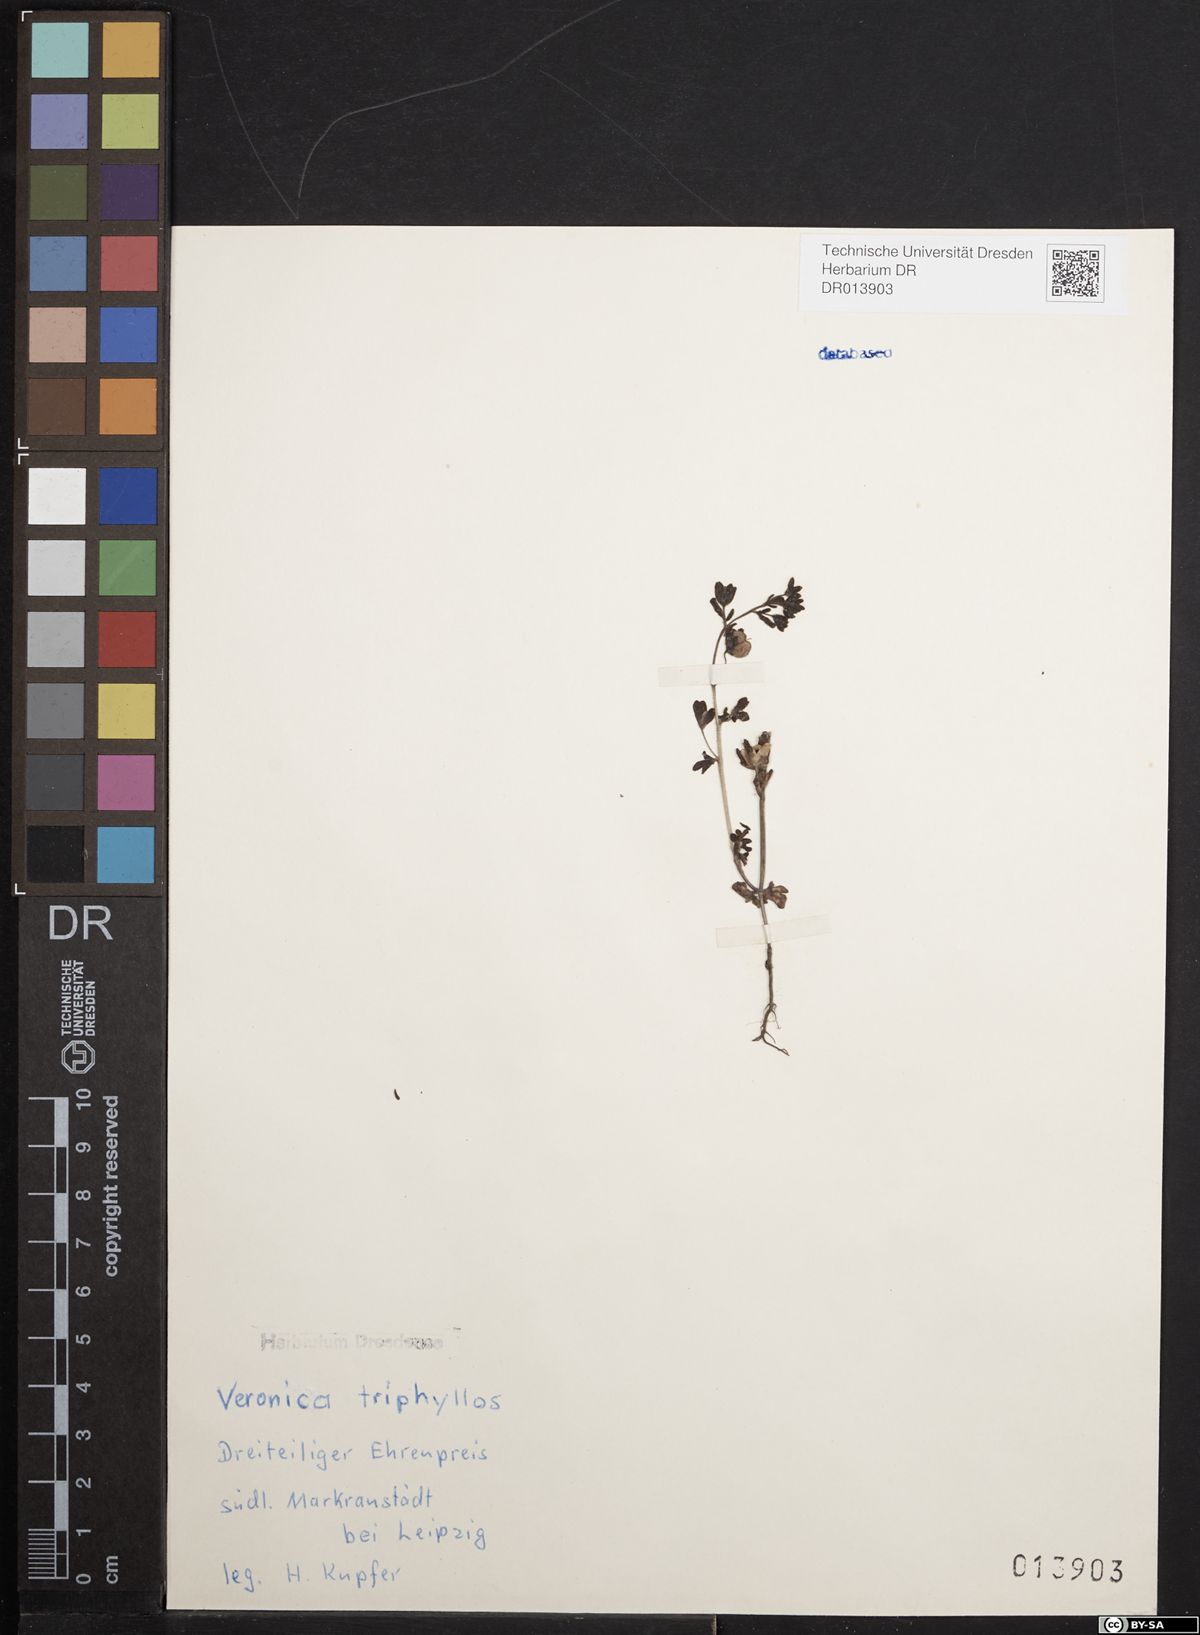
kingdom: Plantae
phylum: Tracheophyta
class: Magnoliopsida
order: Lamiales
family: Plantaginaceae
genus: Veronica
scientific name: Veronica triphyllos
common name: Fingered speedwell
